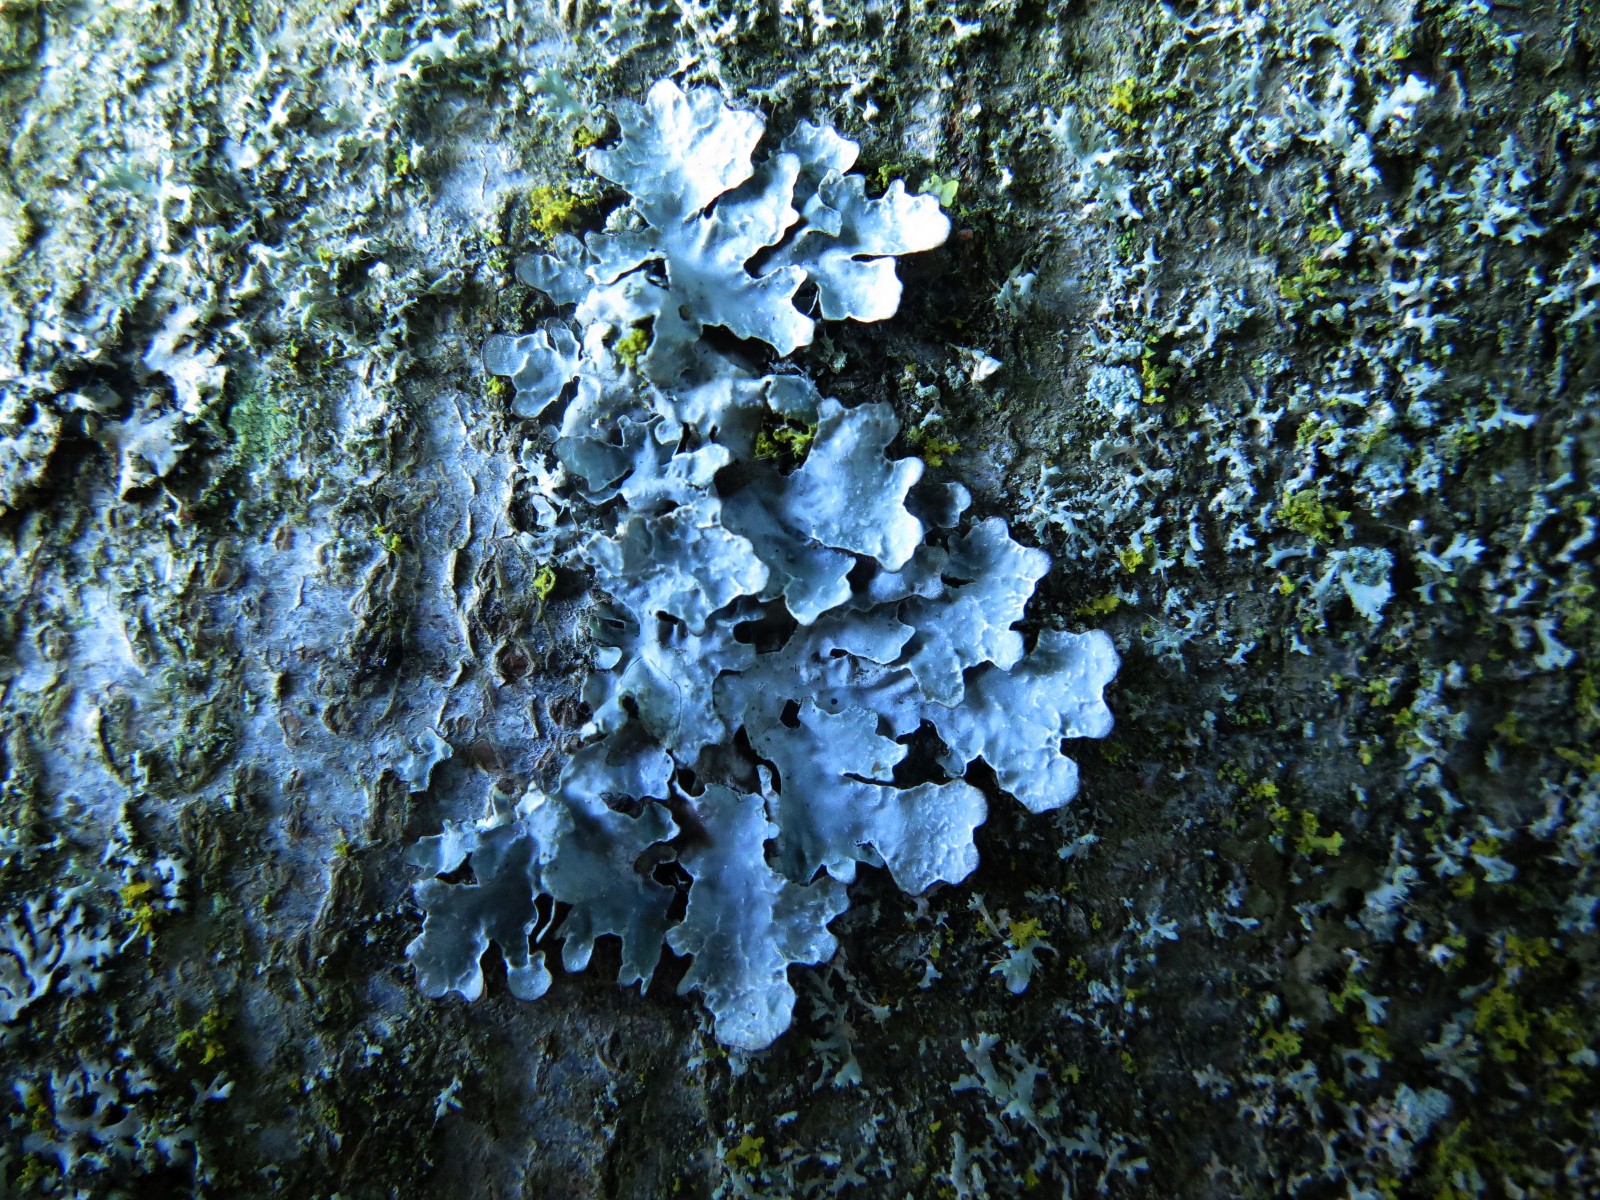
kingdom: Fungi
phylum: Ascomycota
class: Lecanoromycetes
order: Lecanorales
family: Parmeliaceae
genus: Parmelia
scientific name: Parmelia sulcata
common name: rynket skållav
